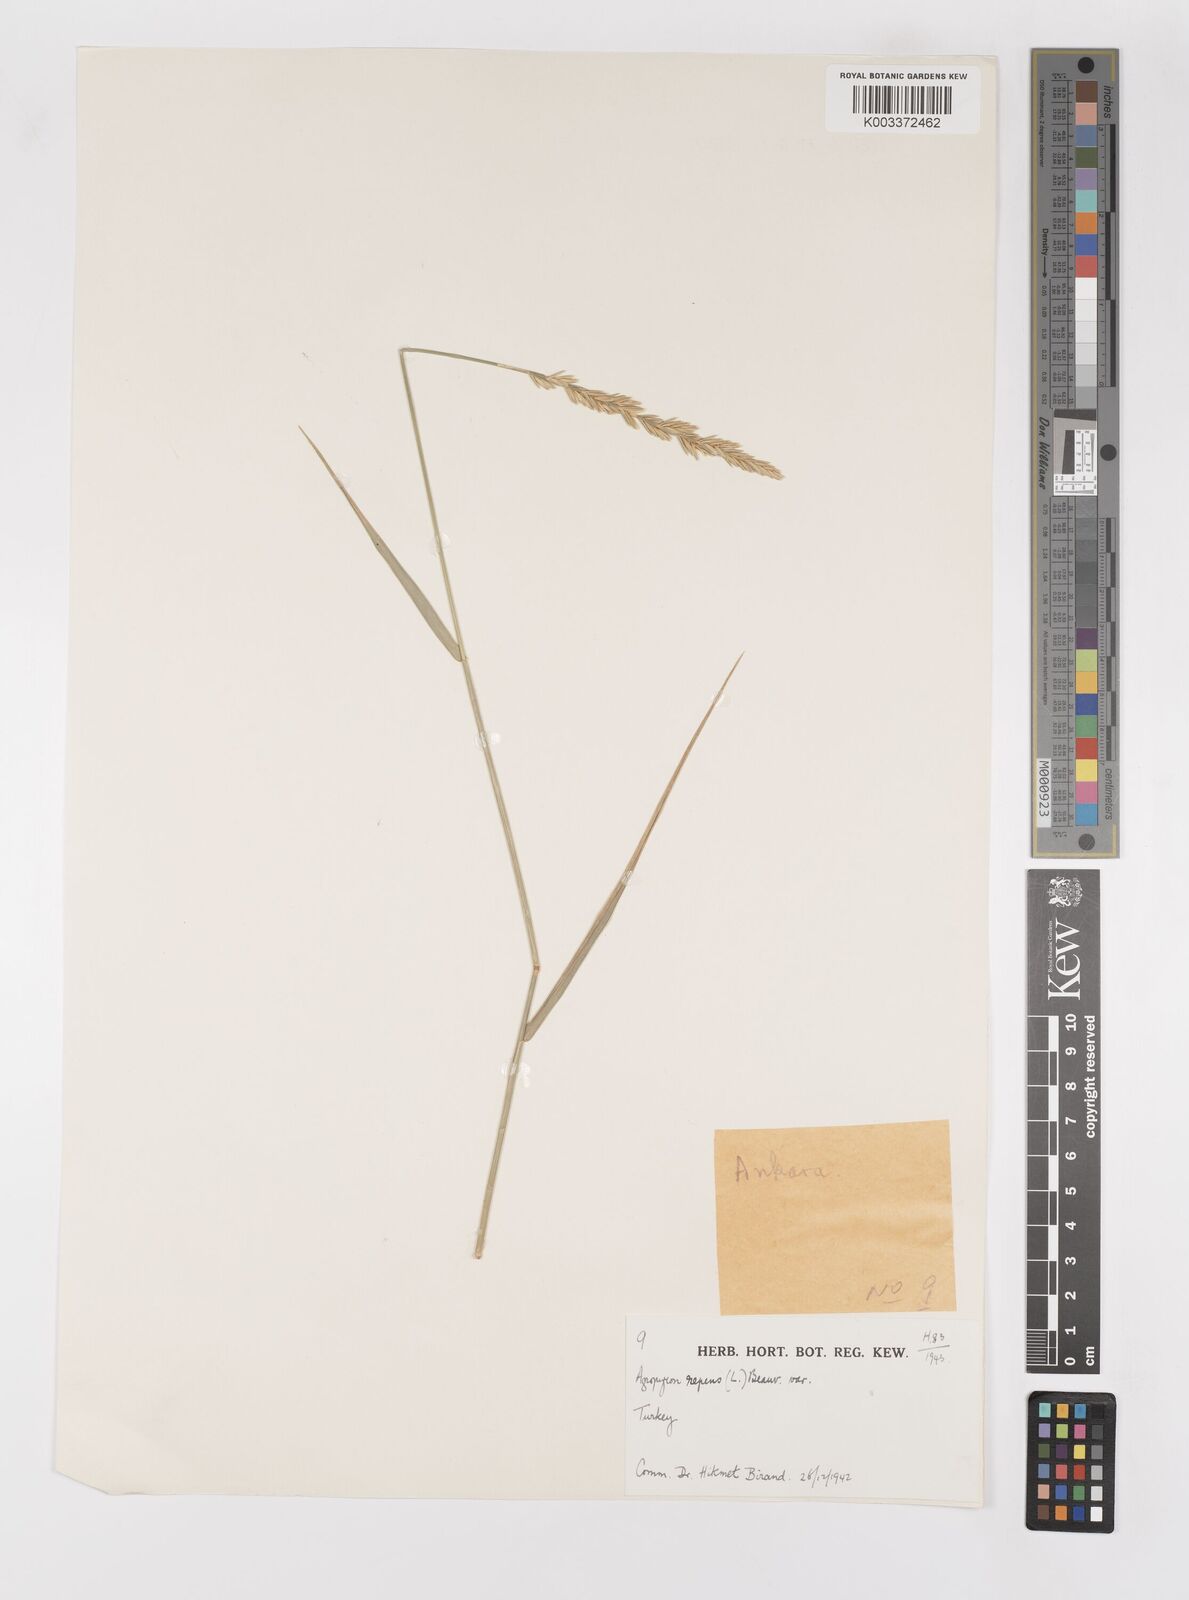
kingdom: Plantae
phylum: Tracheophyta
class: Liliopsida
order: Poales
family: Poaceae
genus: Elymus
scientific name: Elymus repens
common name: Quackgrass
